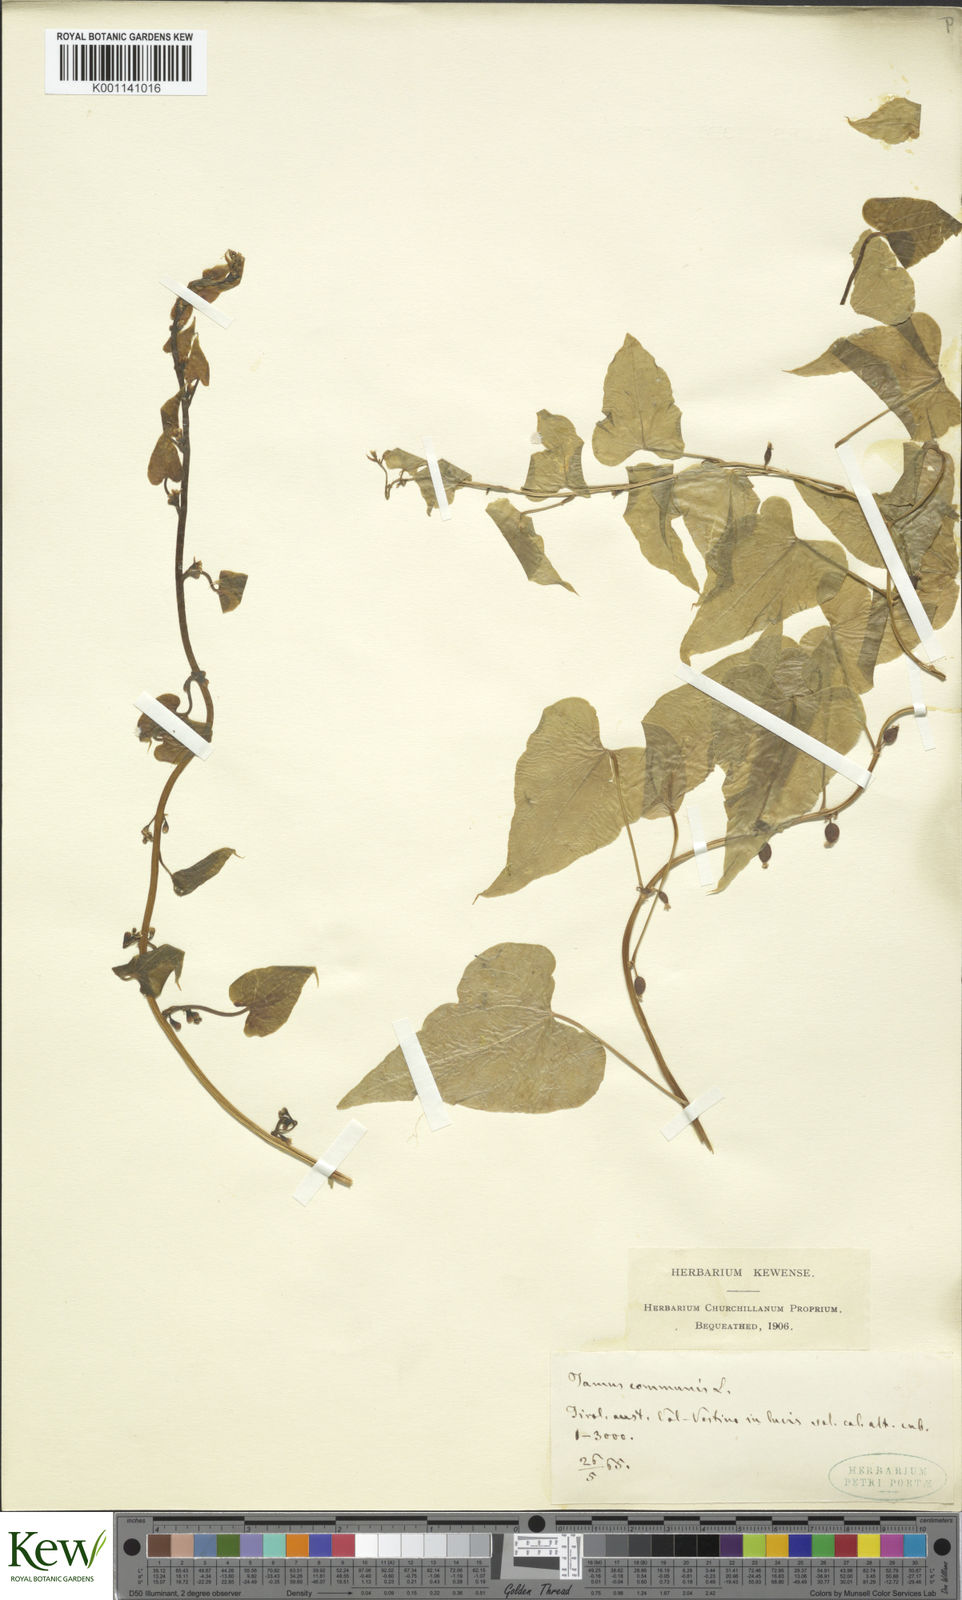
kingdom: Plantae
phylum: Tracheophyta
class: Liliopsida
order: Dioscoreales
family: Dioscoreaceae
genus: Dioscorea
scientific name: Dioscorea communis
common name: Black-bindweed
